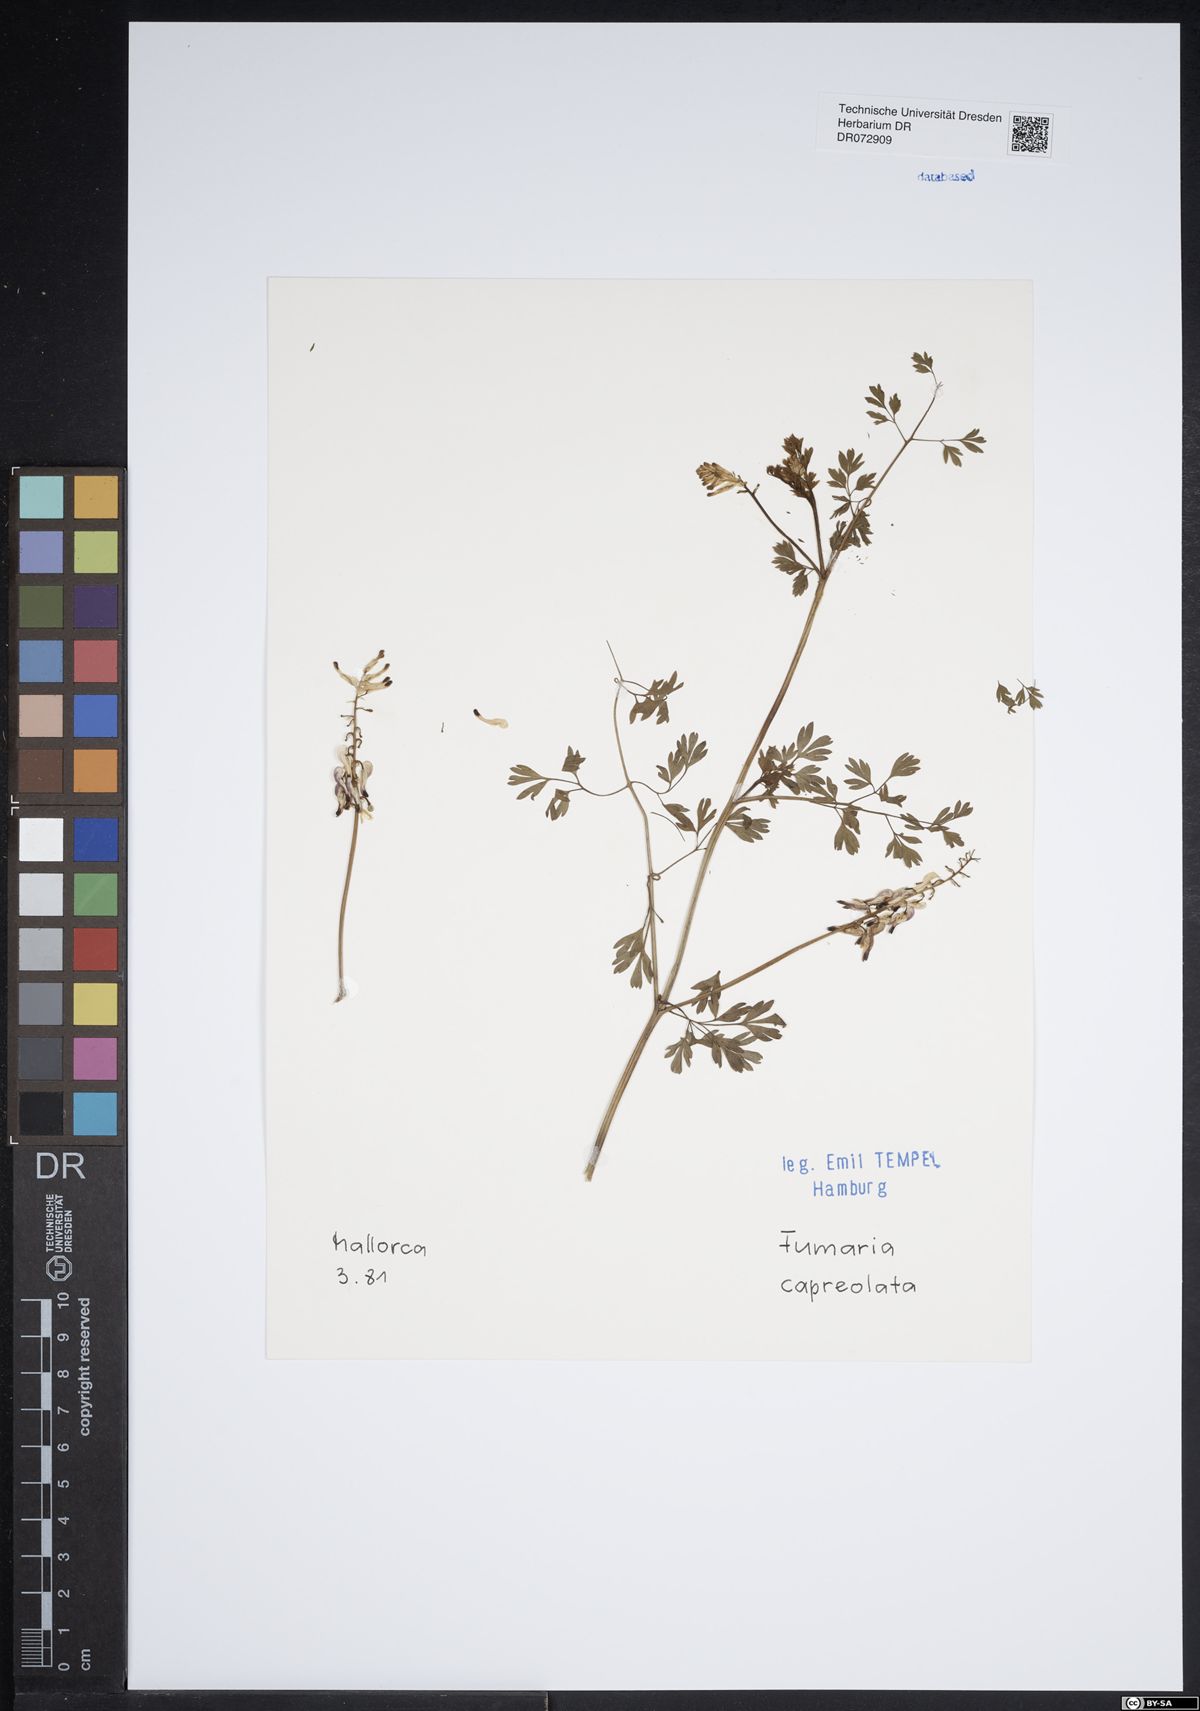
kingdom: Plantae
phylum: Tracheophyta
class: Magnoliopsida
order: Ranunculales
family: Papaveraceae
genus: Fumaria
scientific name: Fumaria capreolata
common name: White ramping-fumitory
